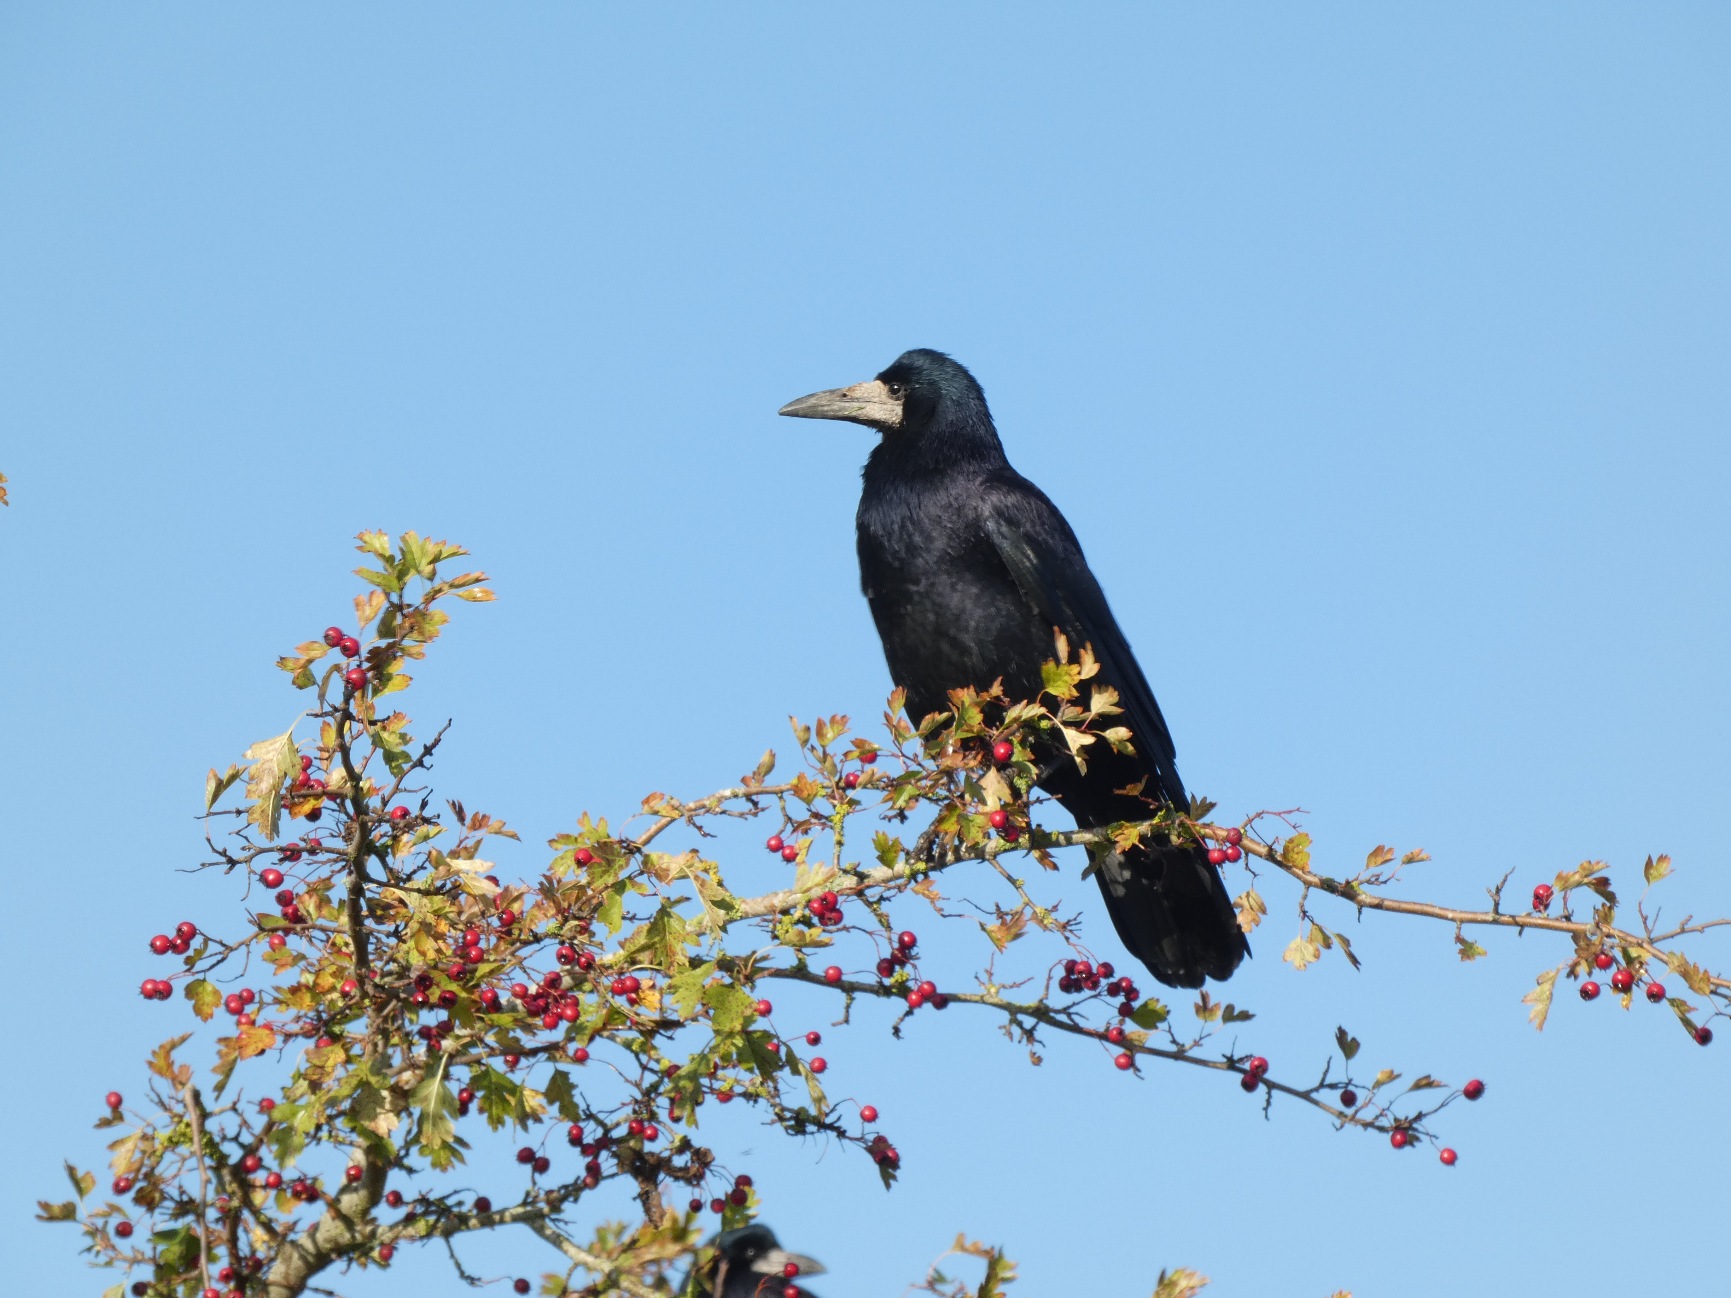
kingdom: Animalia
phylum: Chordata
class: Aves
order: Passeriformes
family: Corvidae
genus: Corvus
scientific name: Corvus frugilegus
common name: Råge
